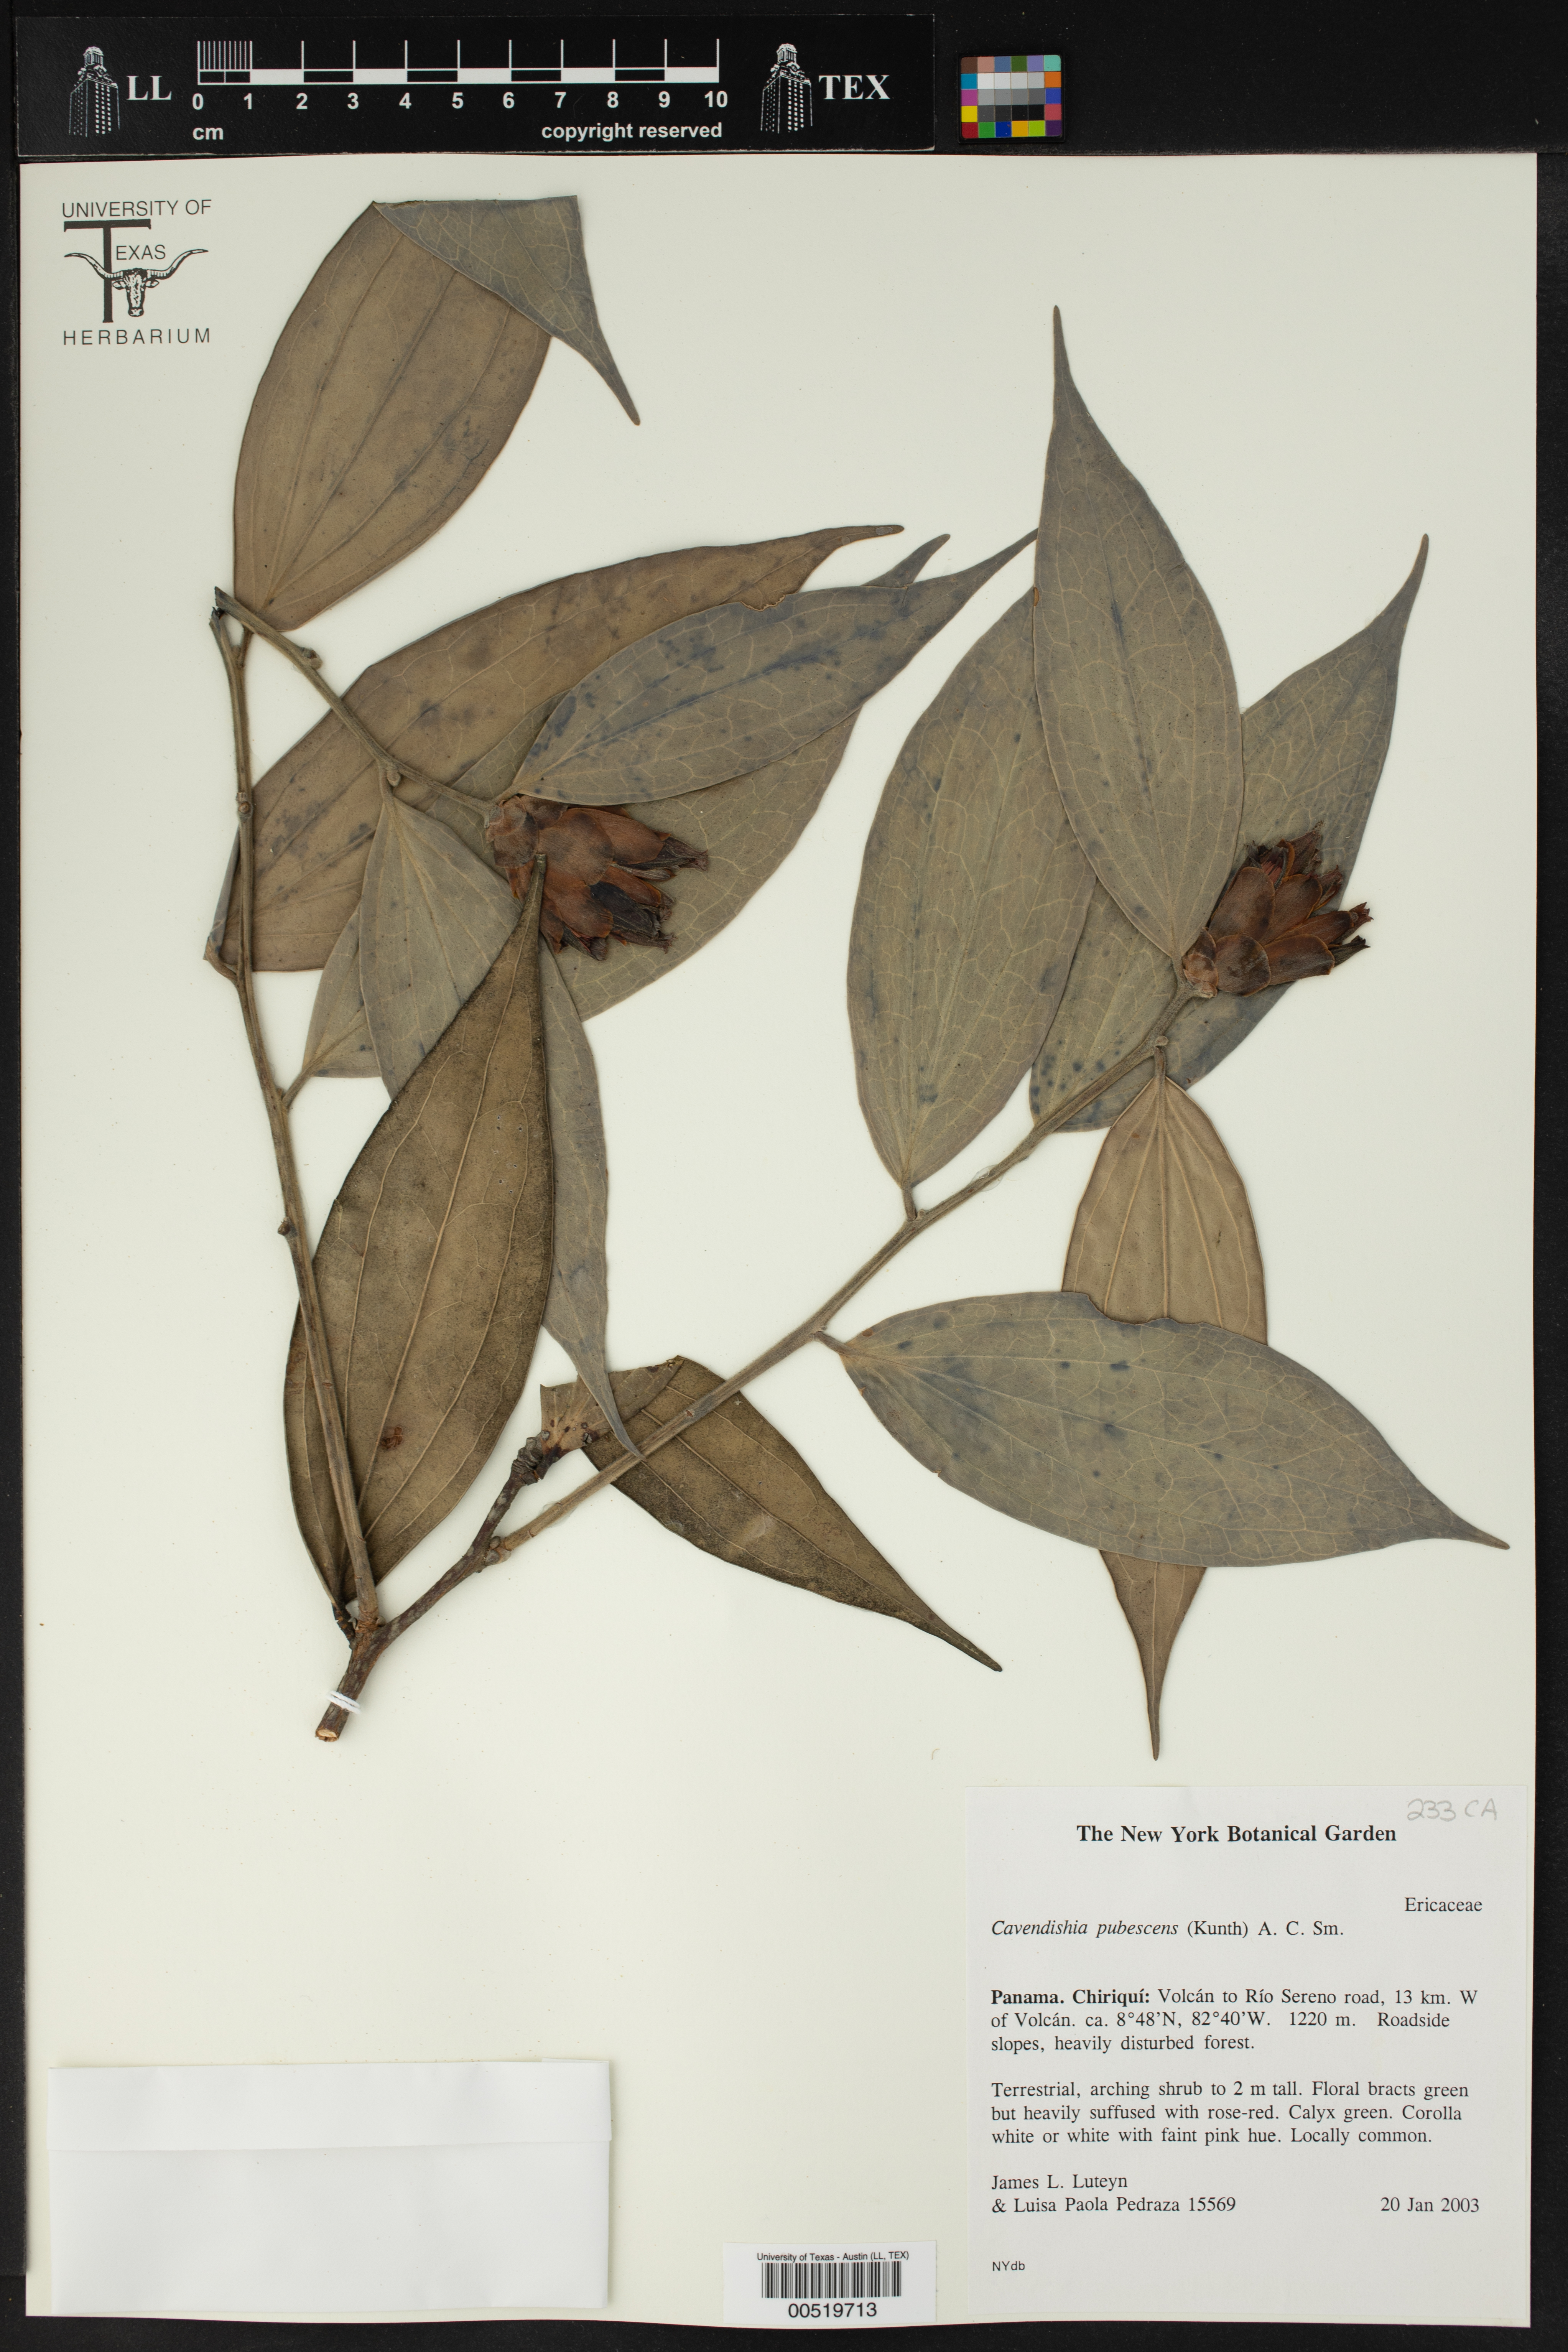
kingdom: Plantae
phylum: Tracheophyta
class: Magnoliopsida
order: Ericales
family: Ericaceae
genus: Cavendishia
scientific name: Cavendishia pubescens
